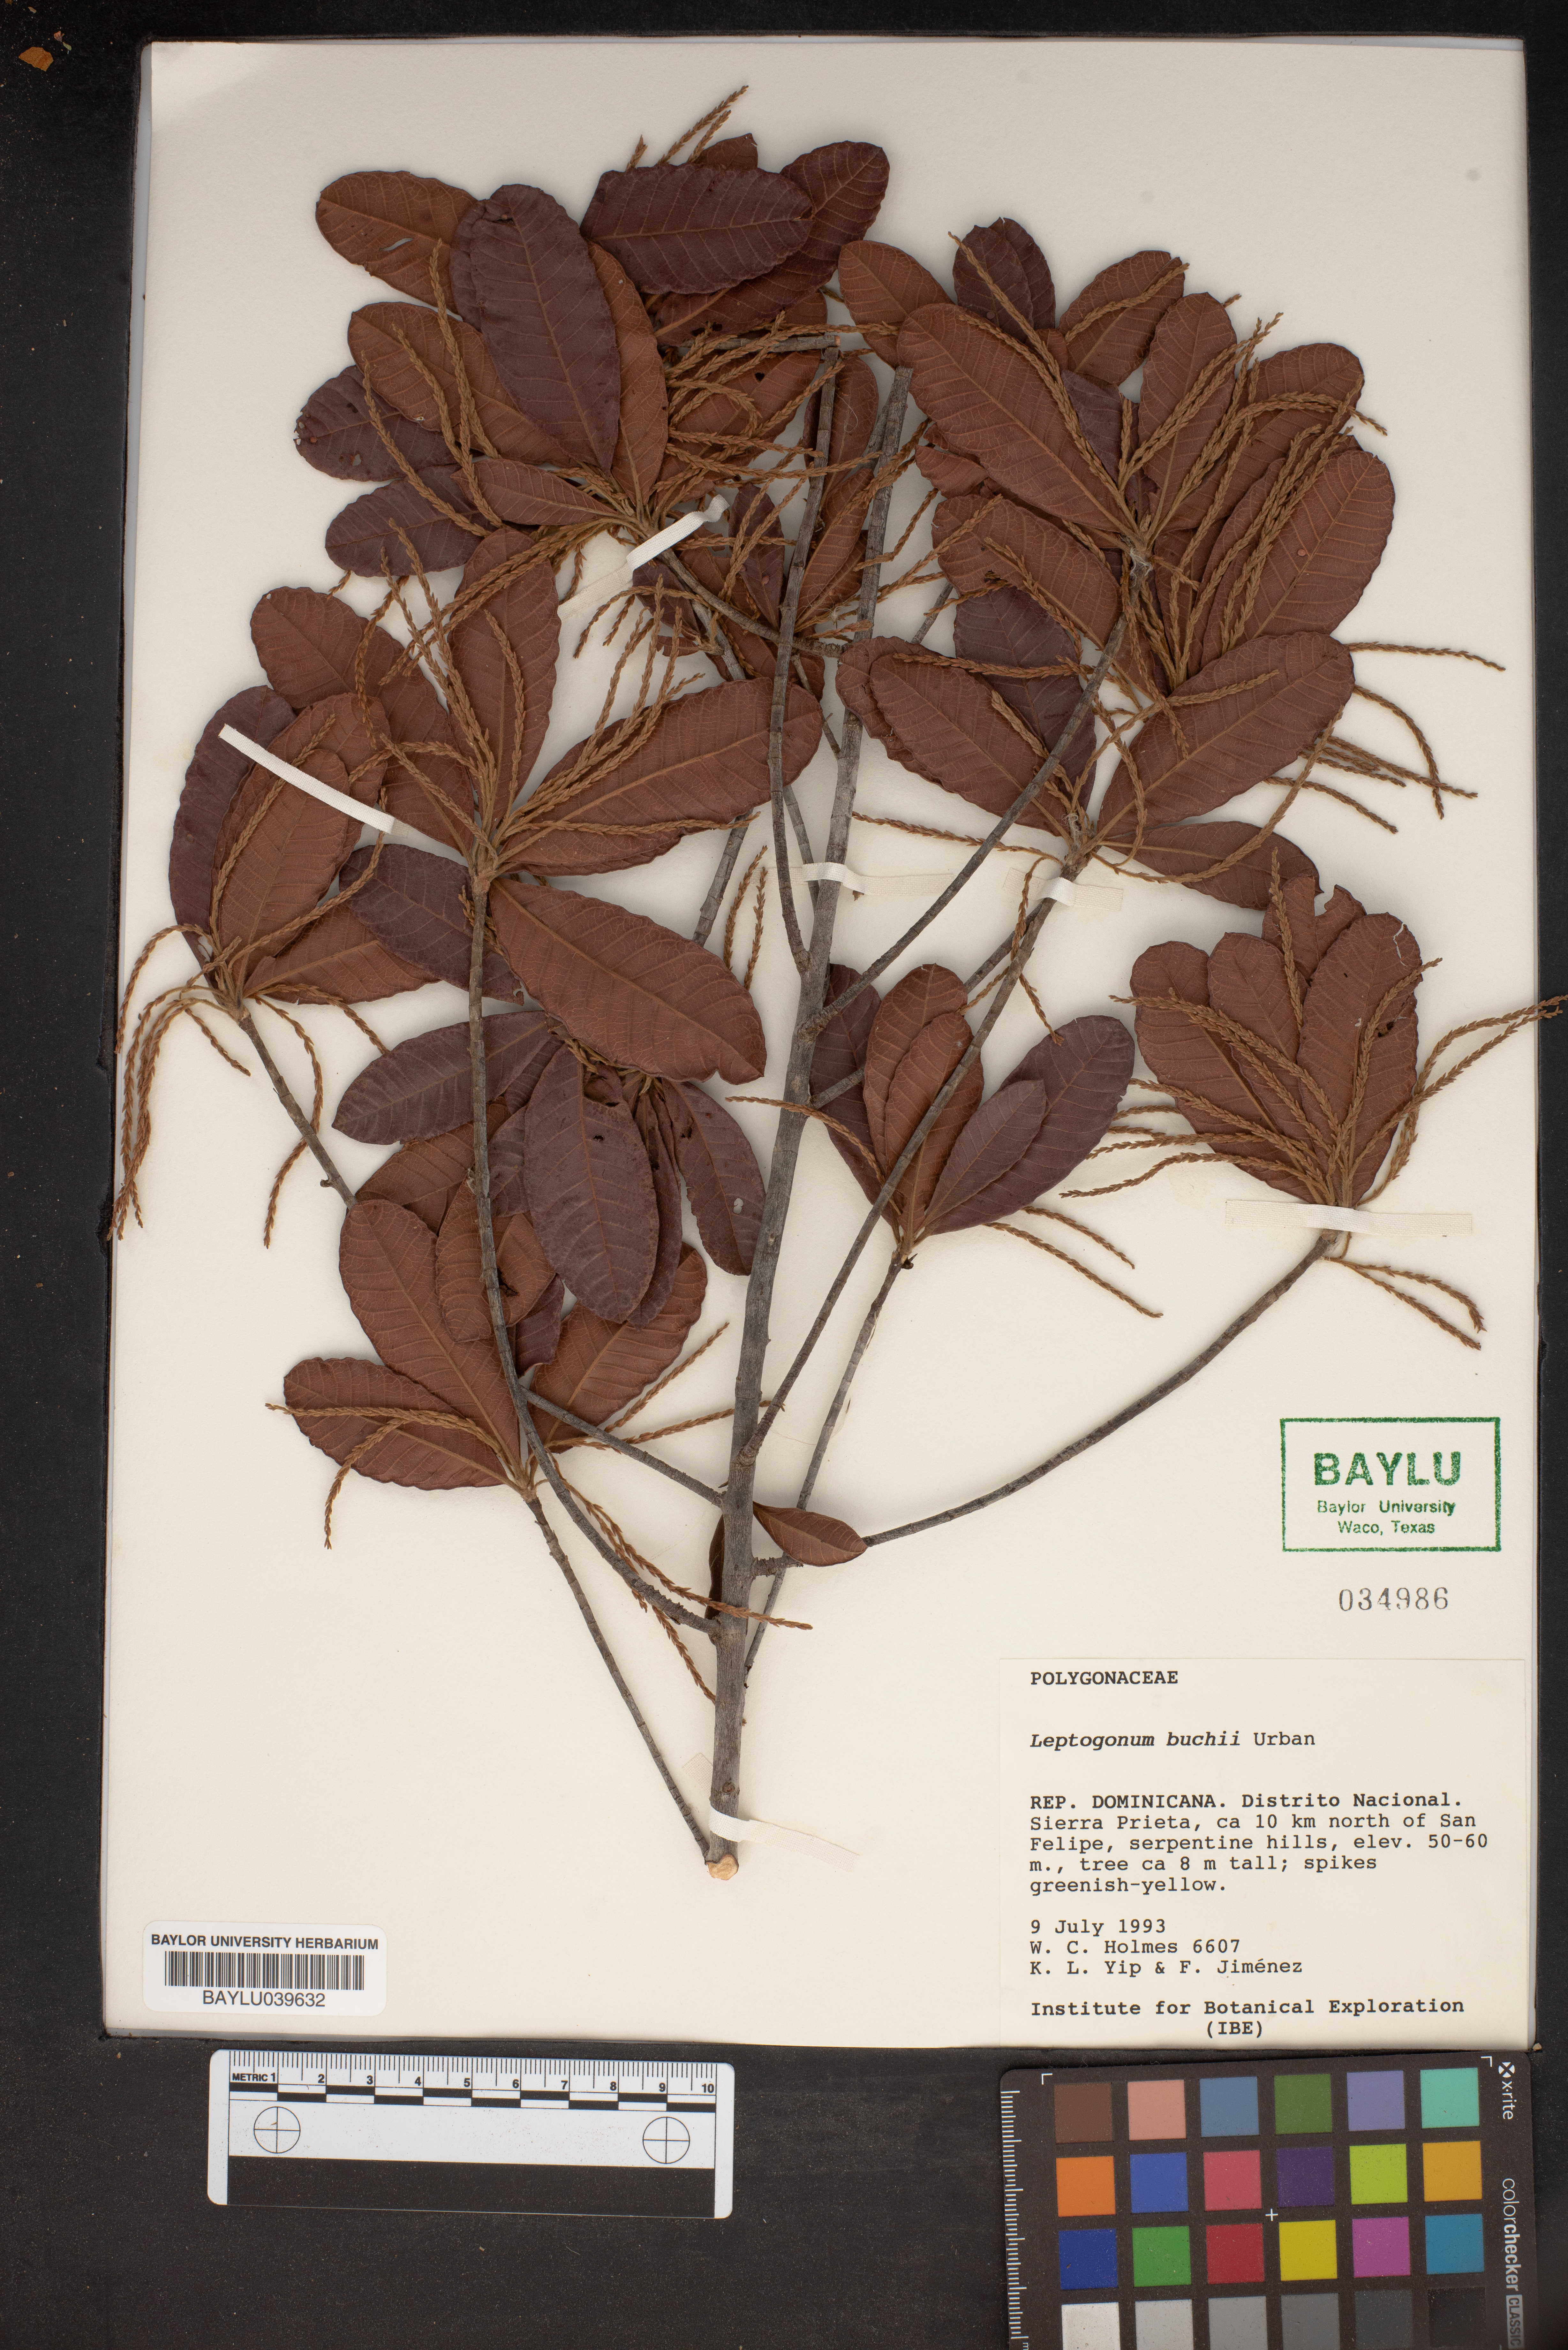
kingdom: Plantae
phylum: Tracheophyta
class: Magnoliopsida
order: Caryophyllales
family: Polygonaceae
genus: Leptogonum
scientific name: Leptogonum domingensis
